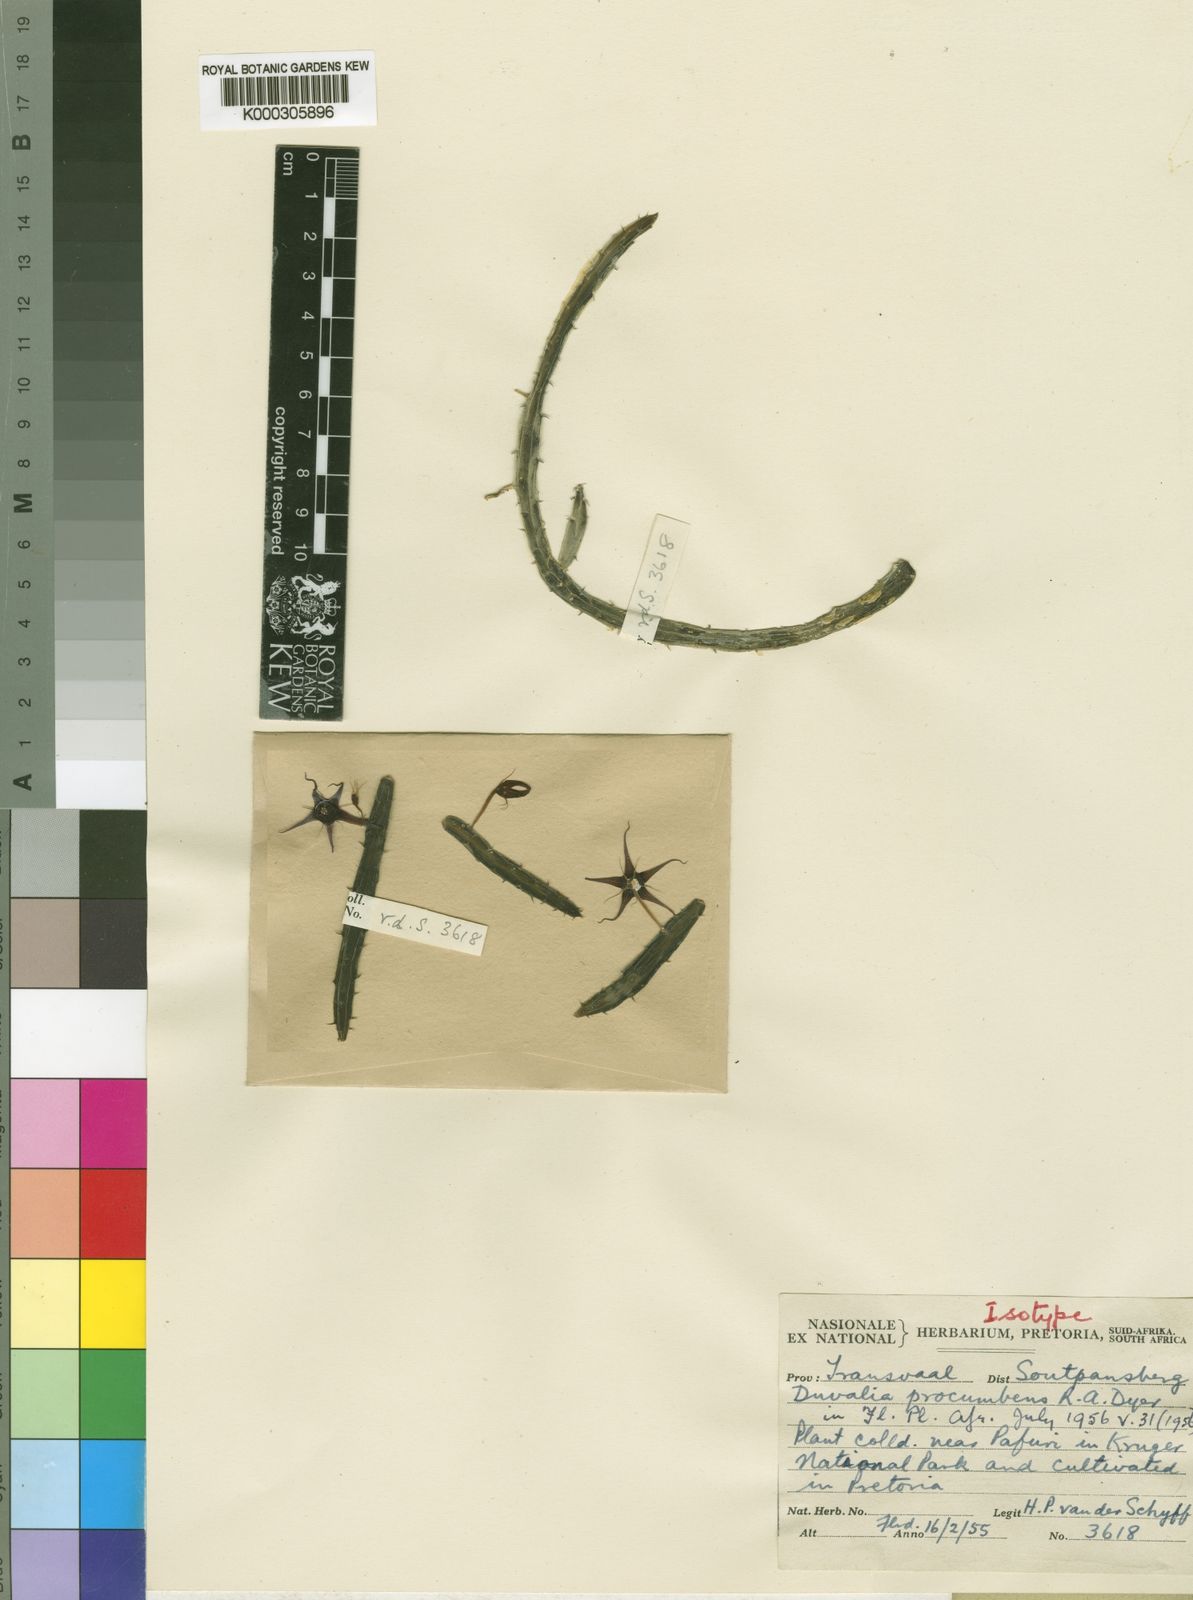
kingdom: Plantae
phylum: Tracheophyta
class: Magnoliopsida
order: Gentianales
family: Apocynaceae
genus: Ceropegia
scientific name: Ceropegia procumbentior
